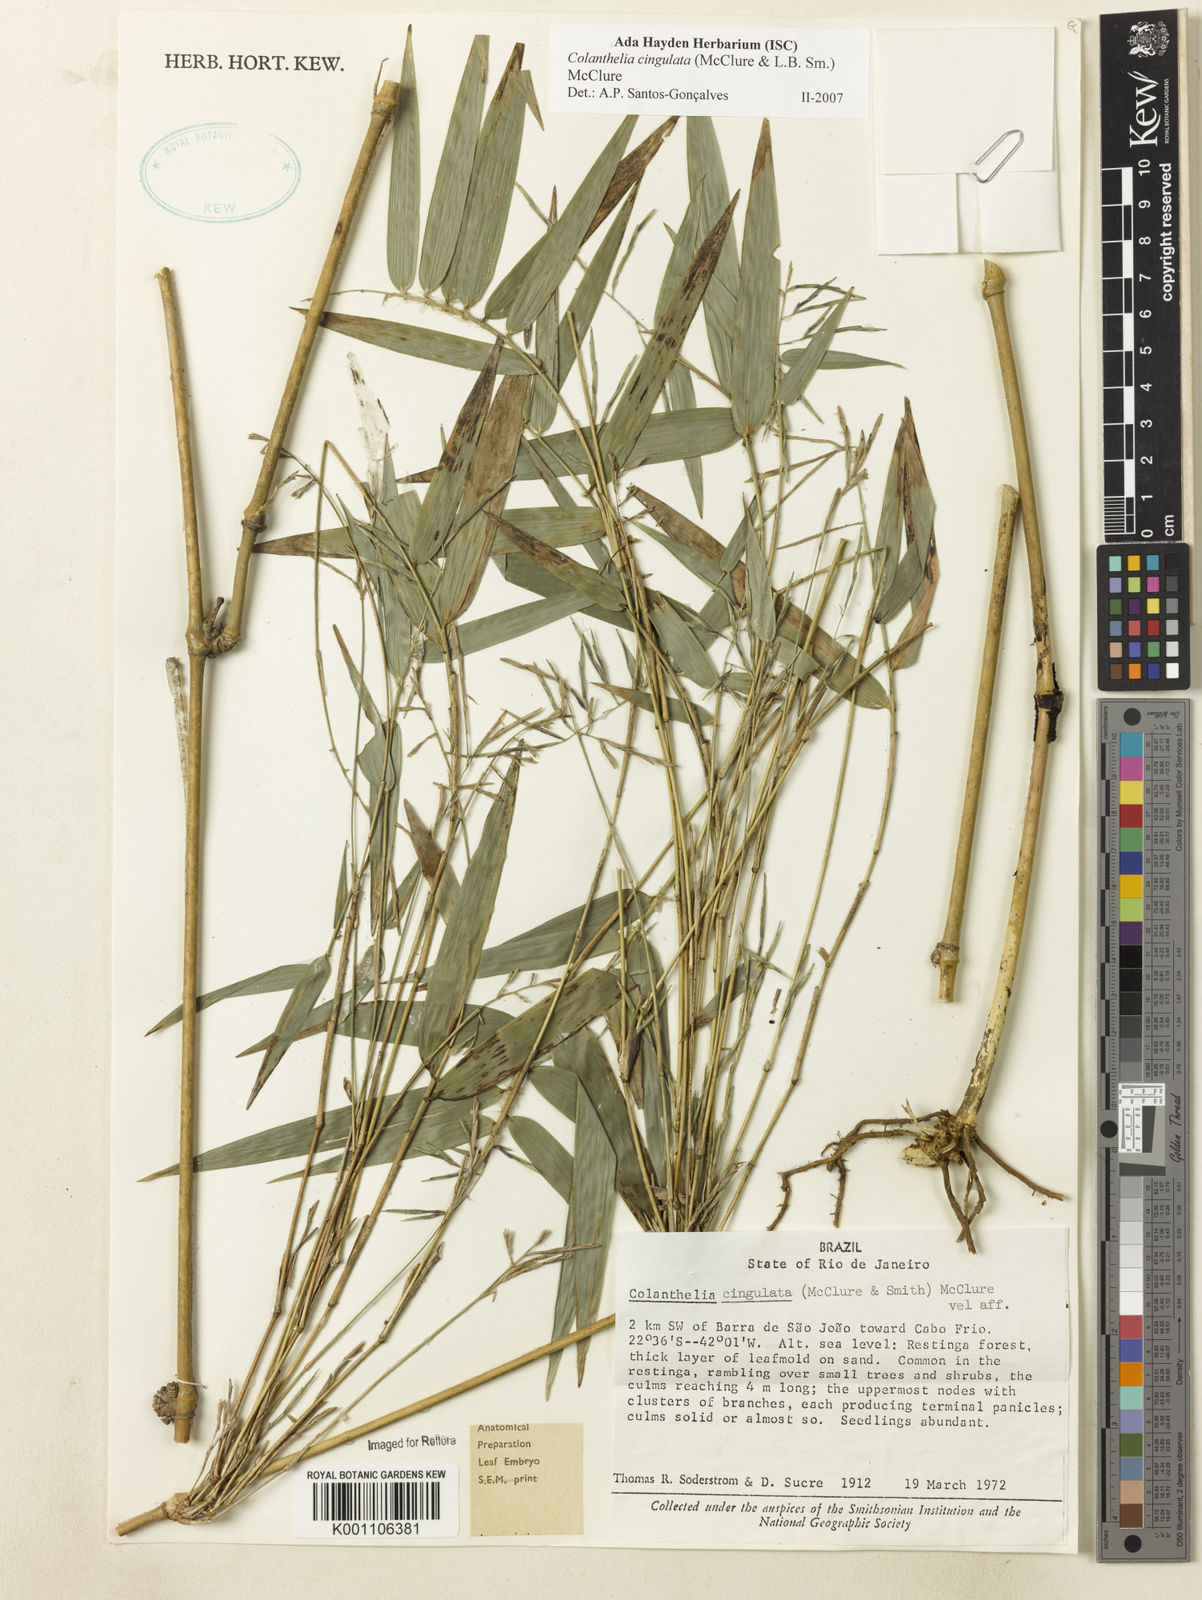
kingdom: Plantae
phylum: Tracheophyta
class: Liliopsida
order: Poales
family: Poaceae
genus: Colanthelia
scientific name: Colanthelia cingulata
